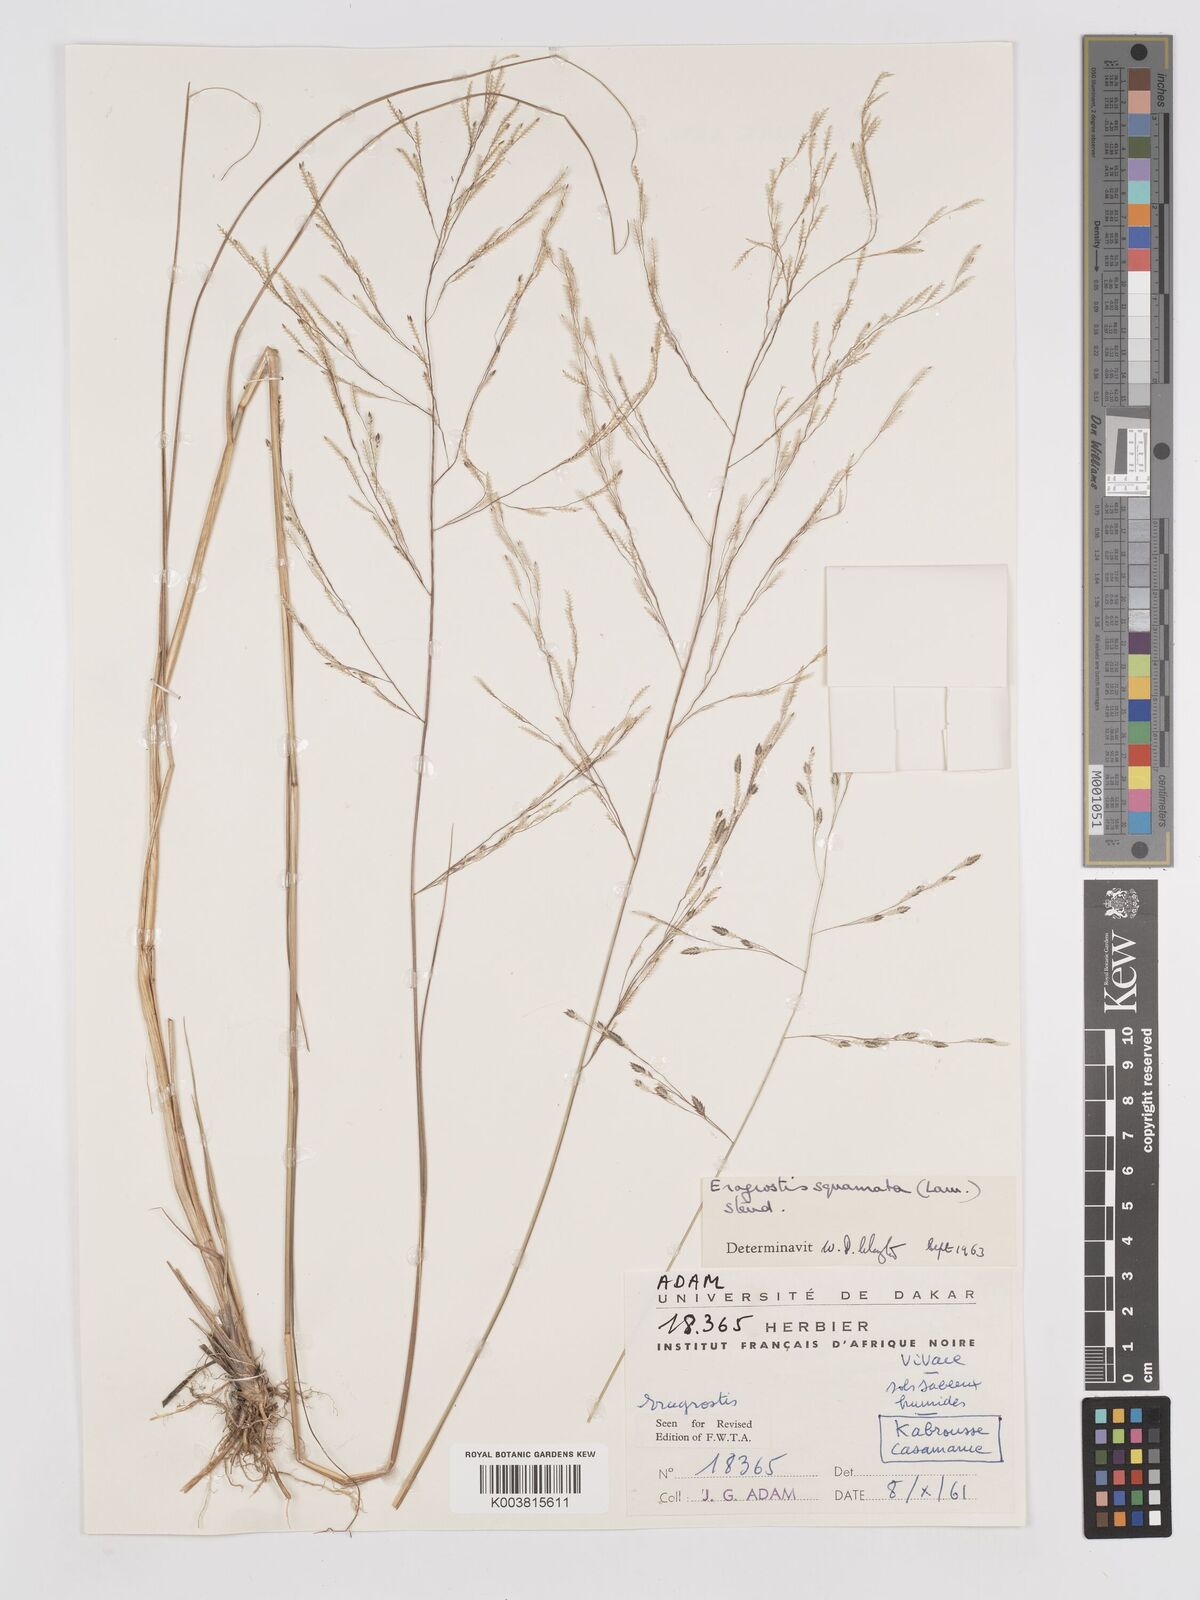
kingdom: Plantae
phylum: Tracheophyta
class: Liliopsida
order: Poales
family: Poaceae
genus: Eragrostis
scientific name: Eragrostis squamata
